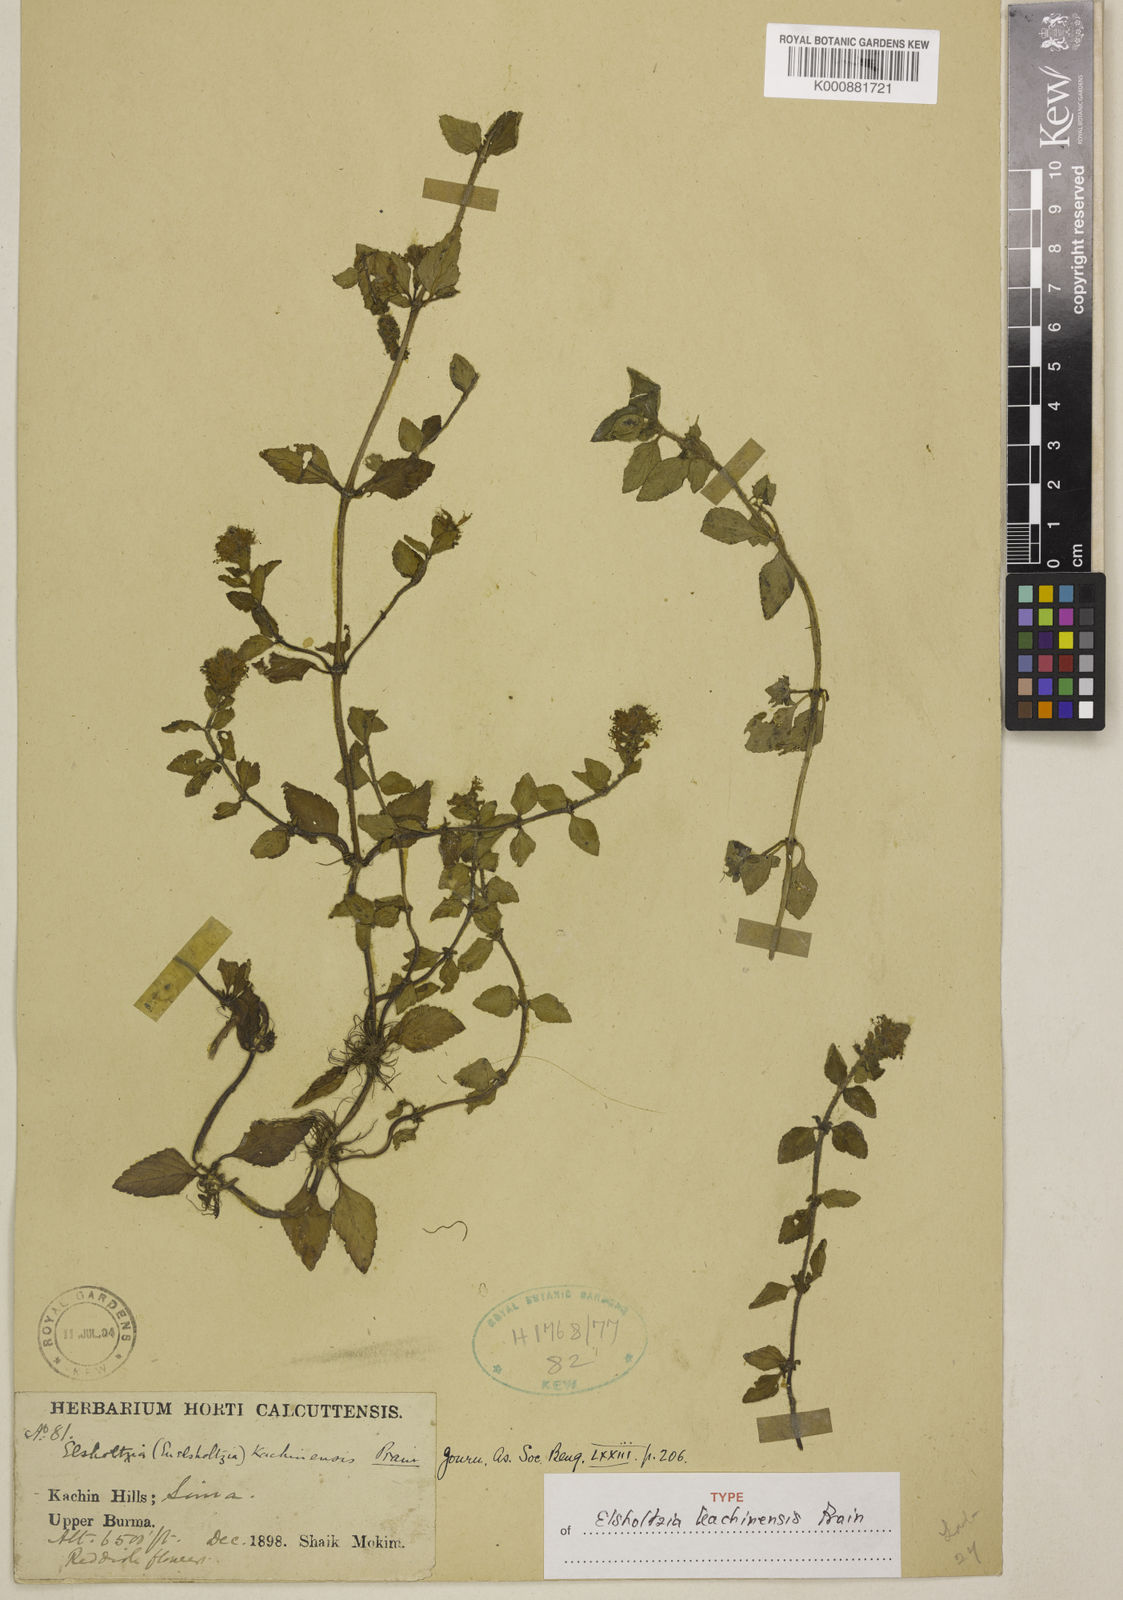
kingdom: Plantae
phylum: Tracheophyta
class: Magnoliopsida
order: Lamiales
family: Lamiaceae
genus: Elsholtzia
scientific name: Elsholtzia kachinensis
